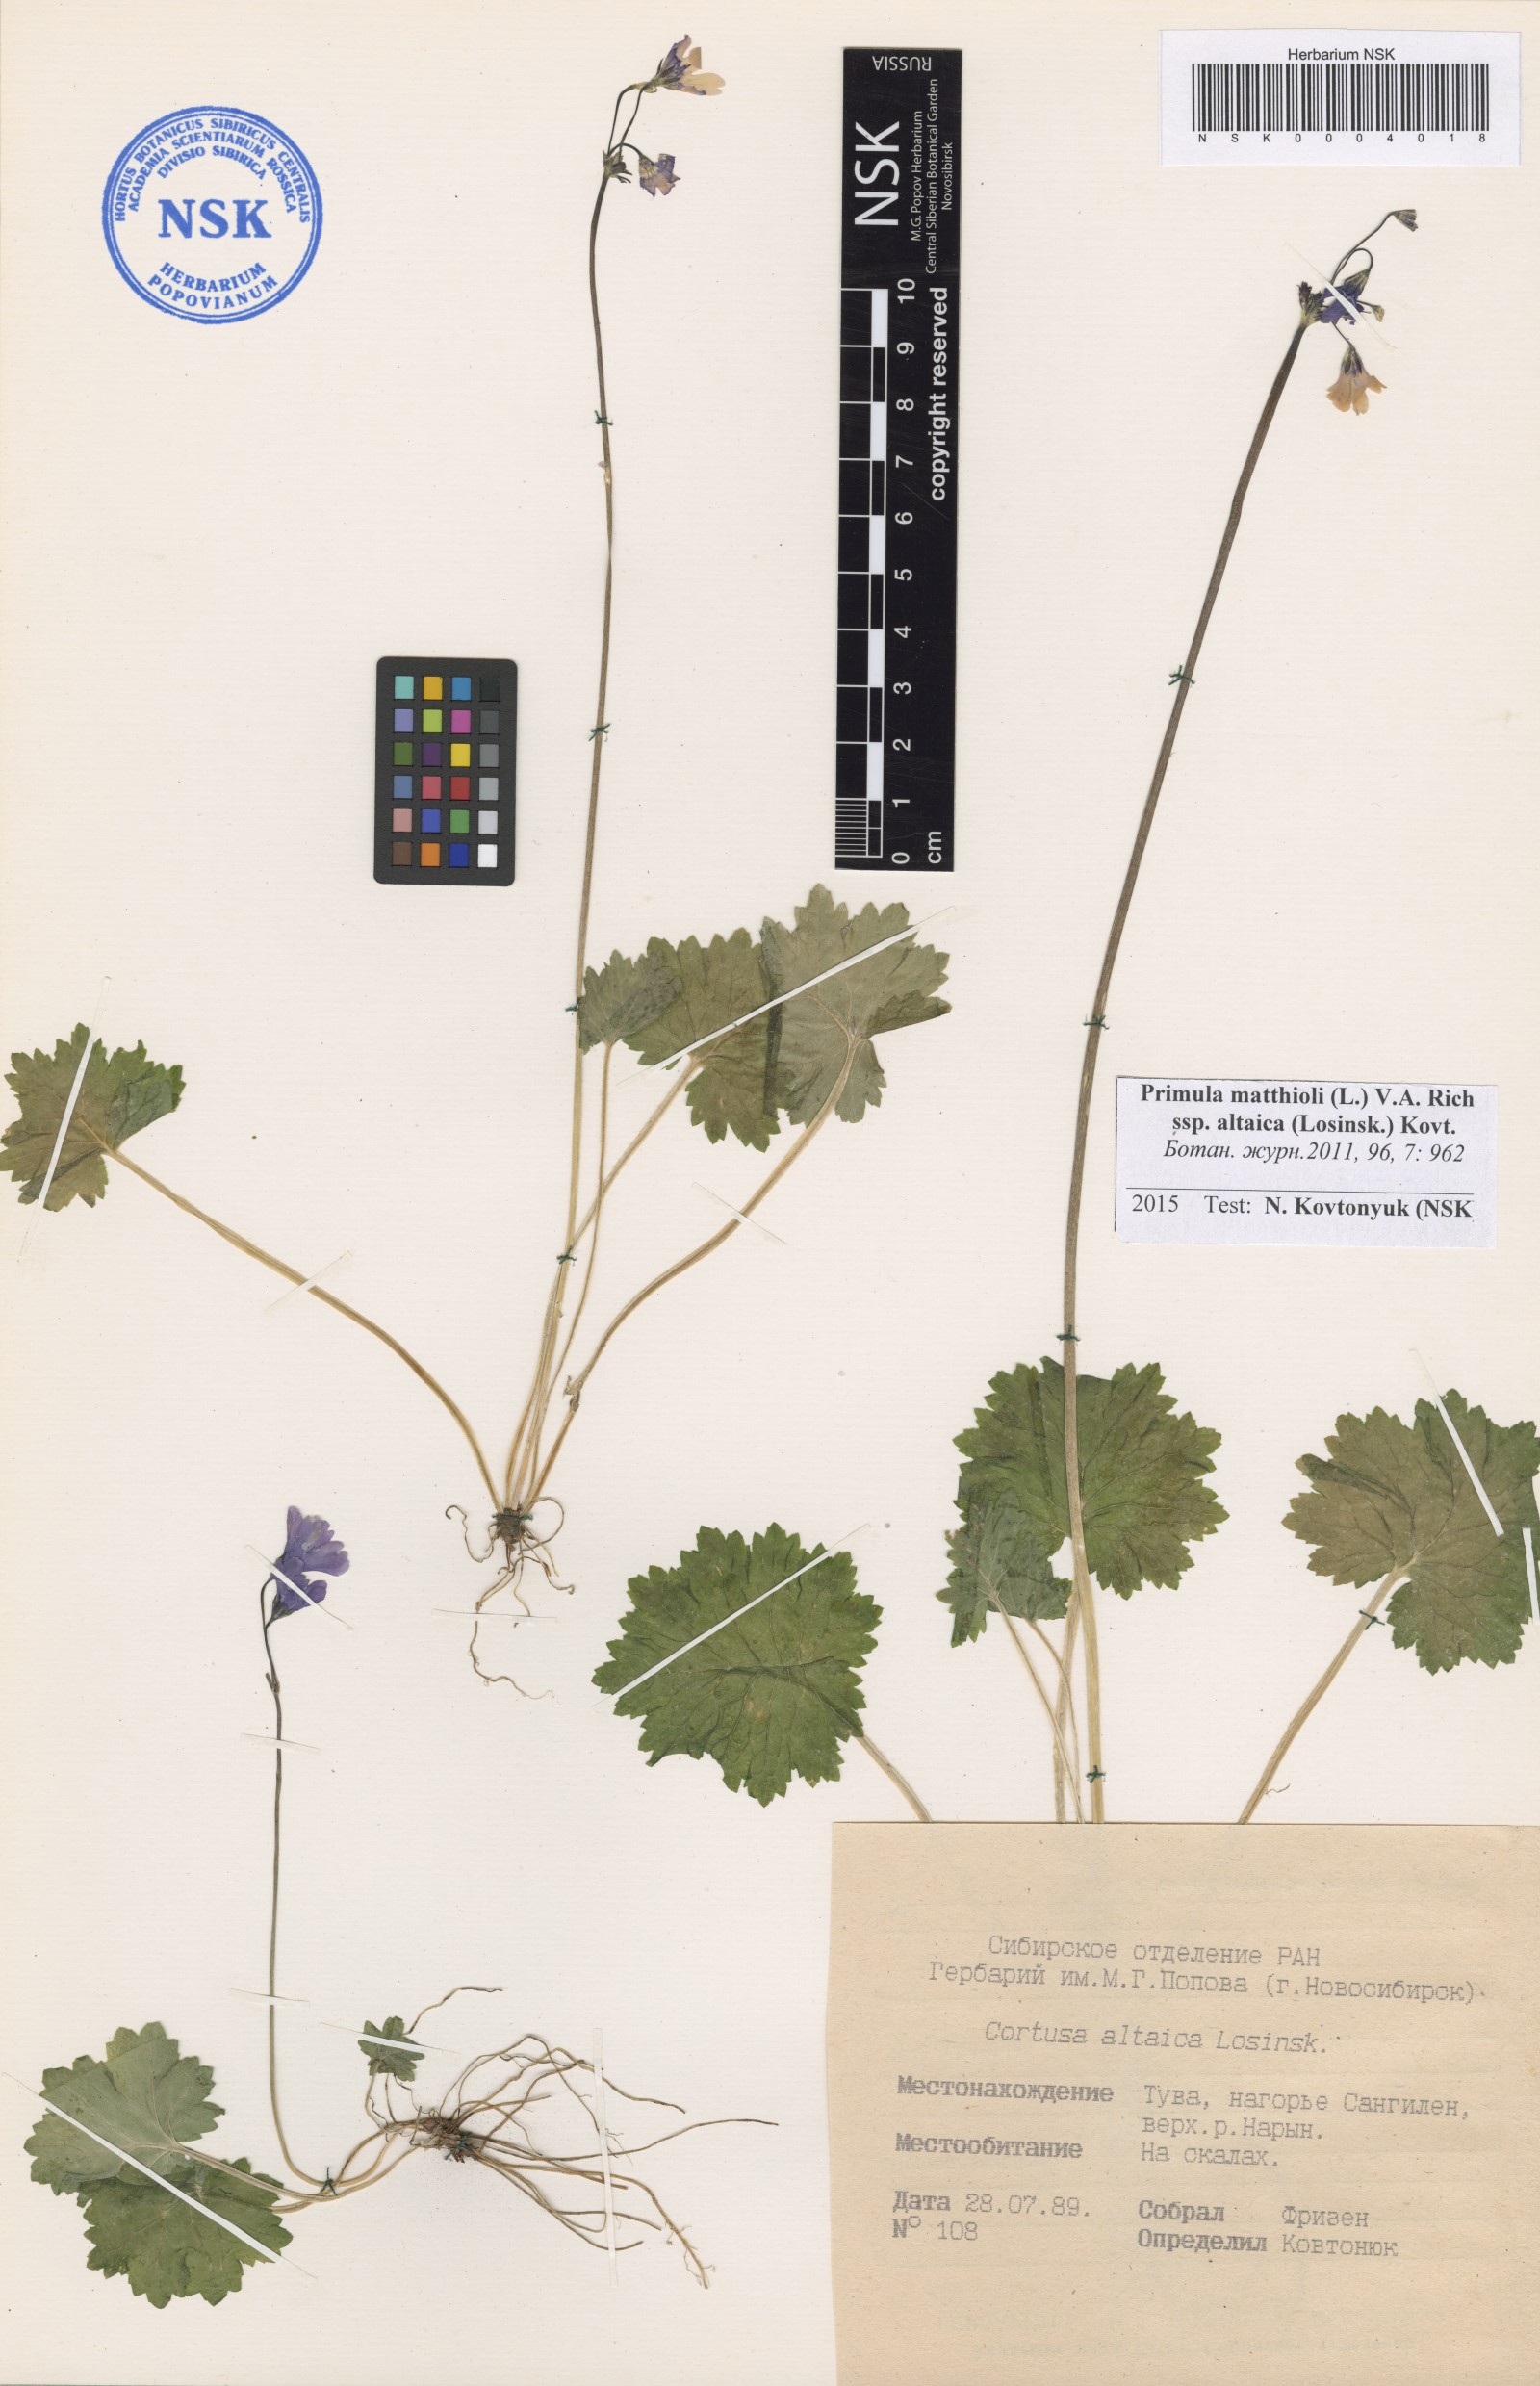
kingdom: Plantae
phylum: Tracheophyta
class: Magnoliopsida
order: Ericales
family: Primulaceae
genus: Primula
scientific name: Primula matthioli
